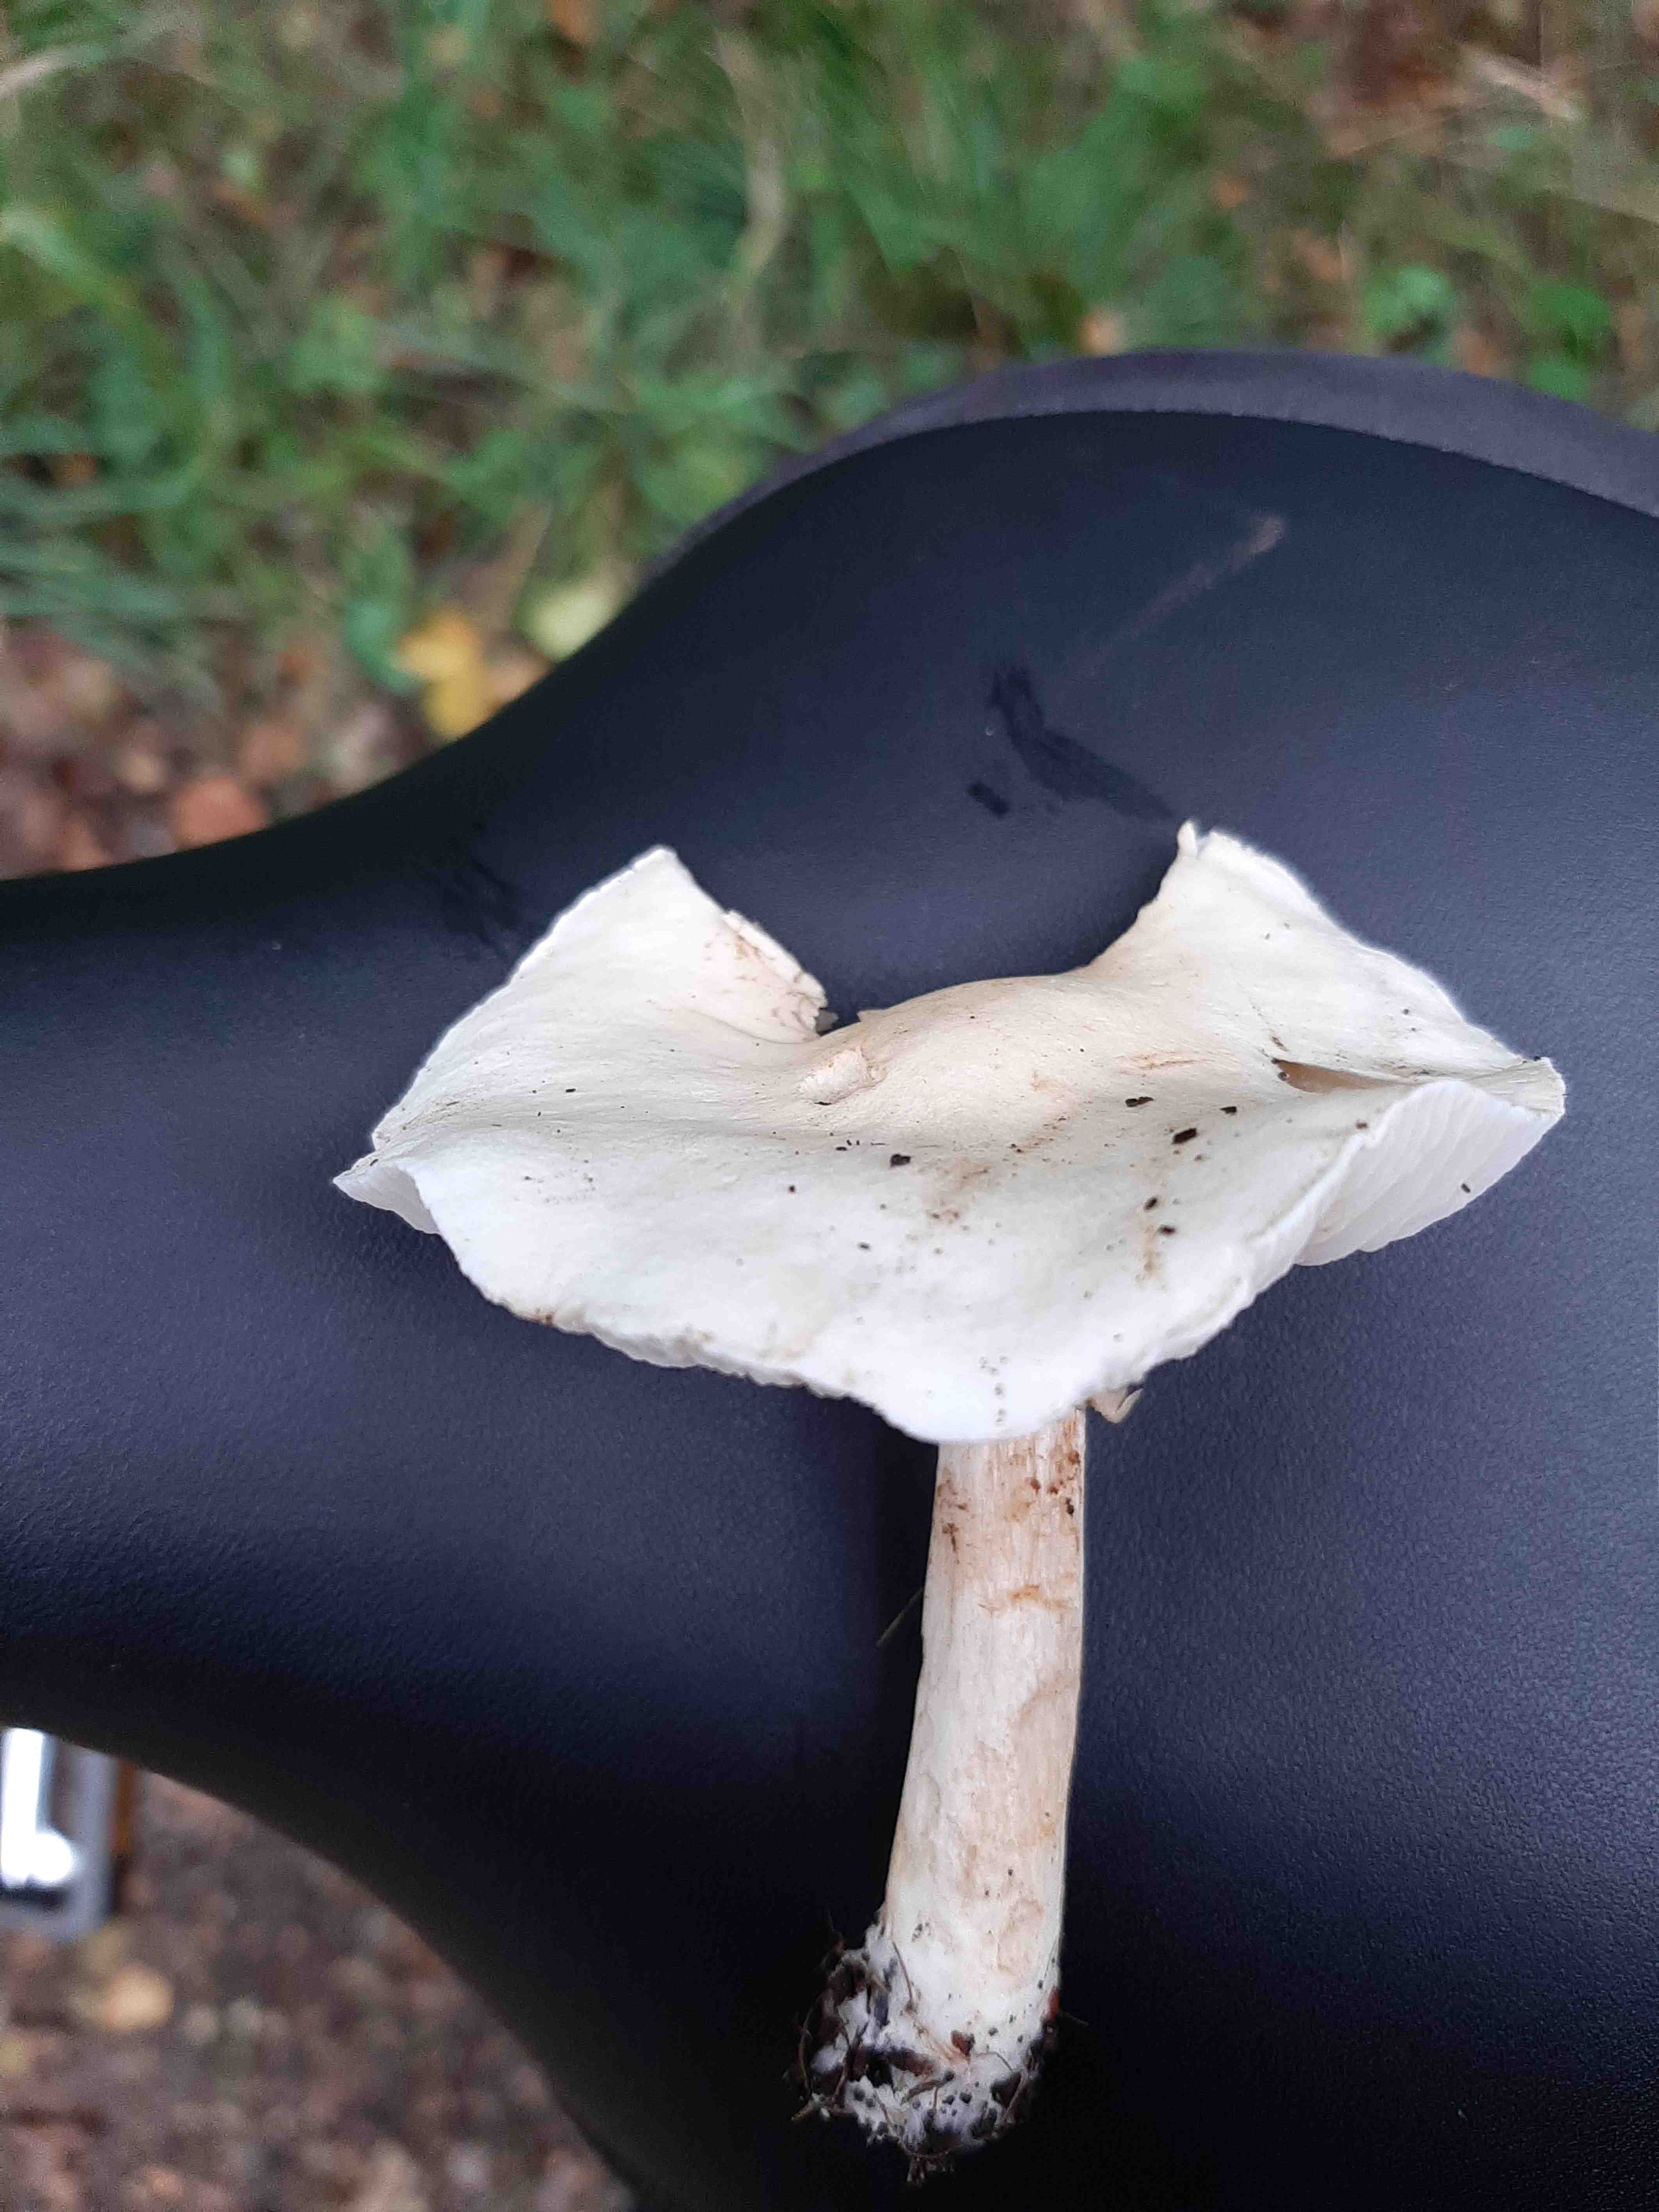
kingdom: Fungi
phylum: Basidiomycota
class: Agaricomycetes
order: Agaricales
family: Tricholomataceae
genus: Tricholoma
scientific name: Tricholoma stiparophyllum
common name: hvid ridderhat
